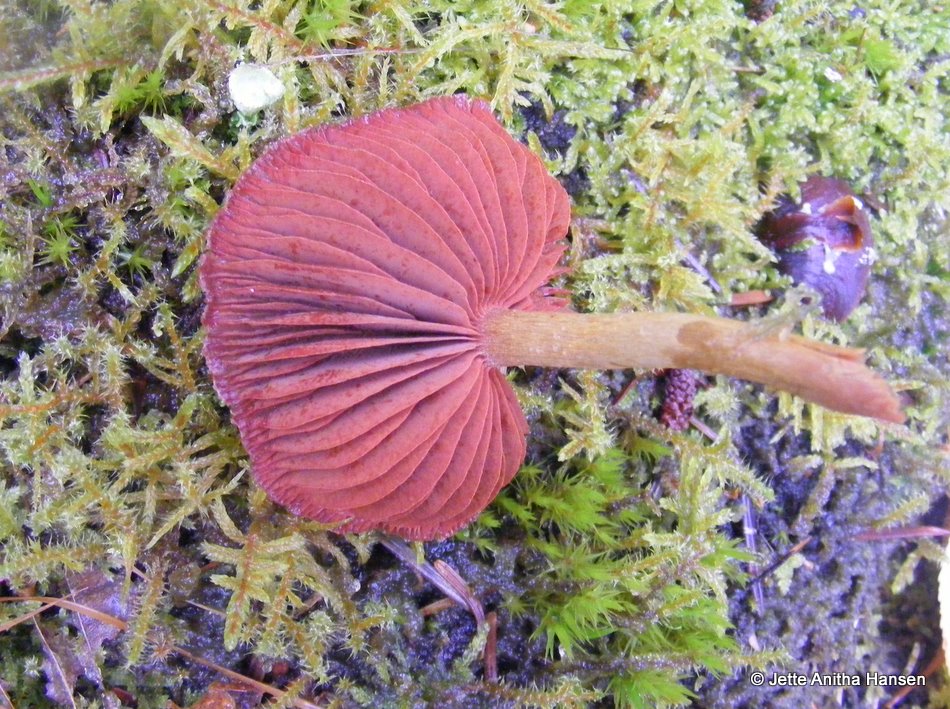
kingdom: Fungi
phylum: Basidiomycota
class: Agaricomycetes
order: Agaricales
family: Cortinariaceae
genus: Cortinarius
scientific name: Cortinarius
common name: cinnoberbladet slørhat
